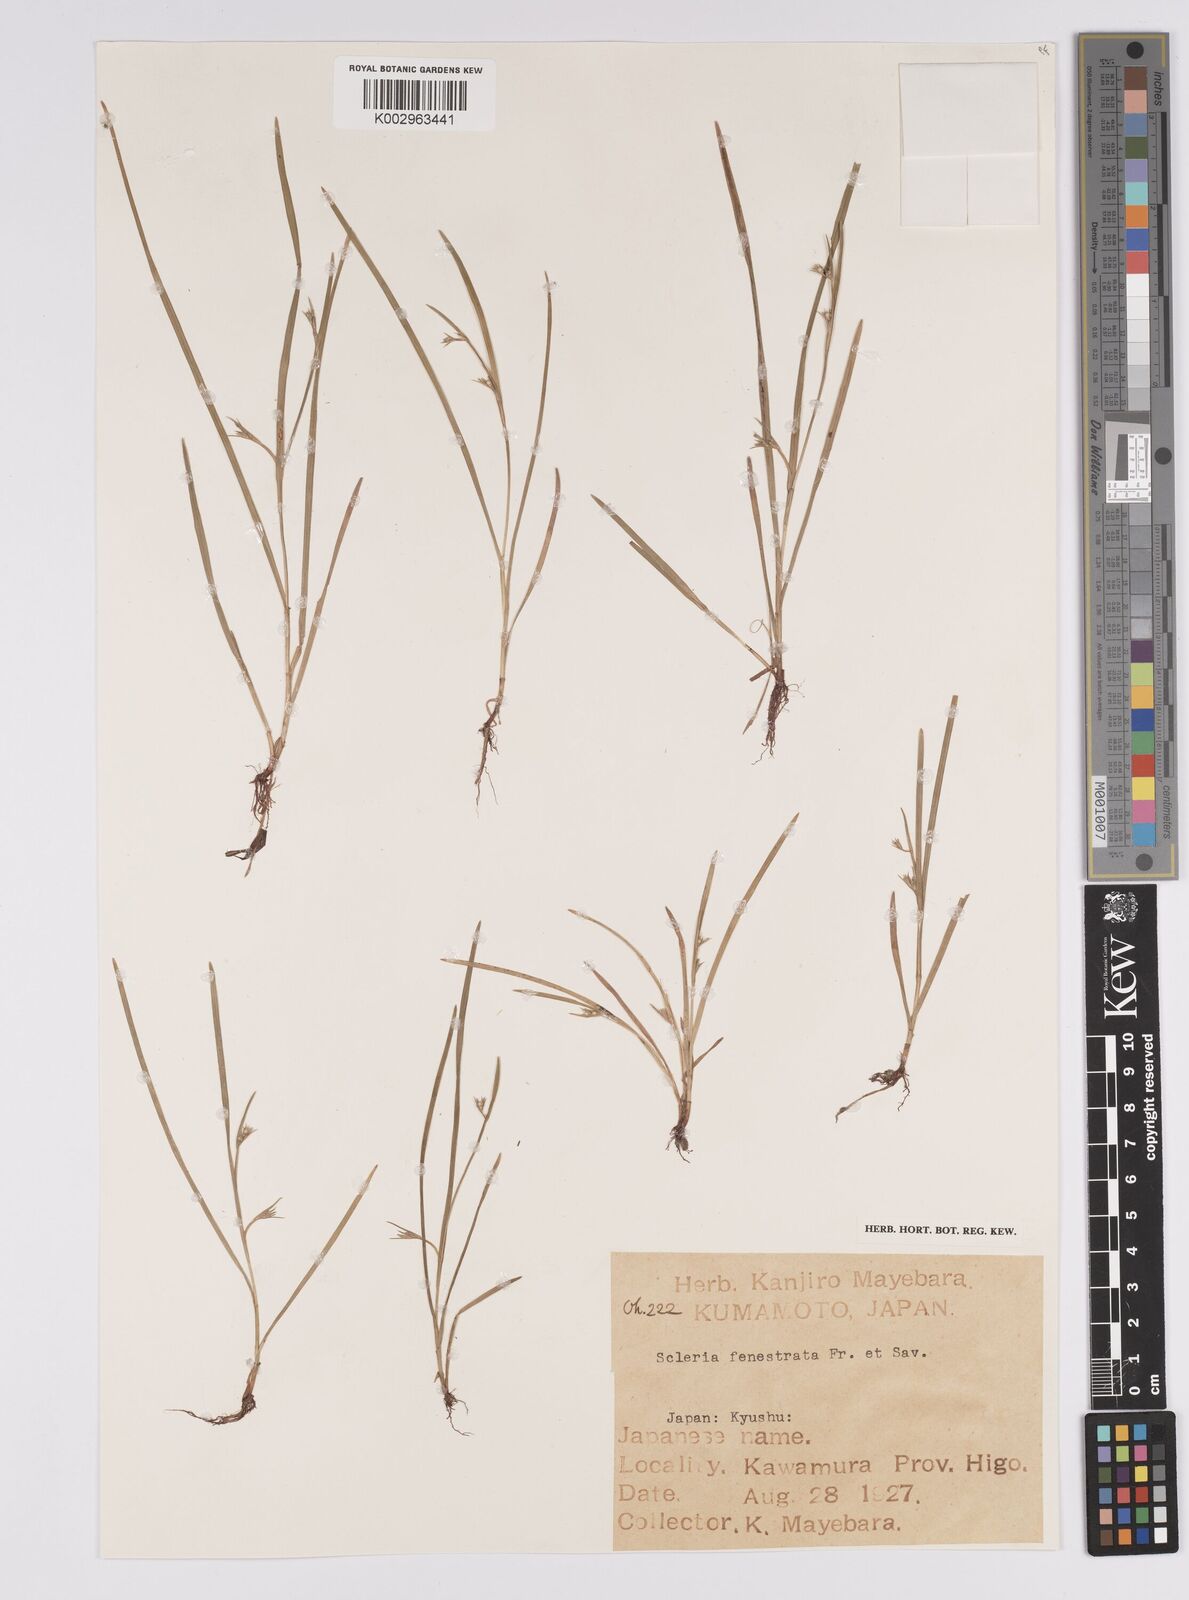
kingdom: Plantae
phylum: Tracheophyta
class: Liliopsida
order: Poales
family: Cyperaceae
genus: Scleria
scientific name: Scleria parvula
